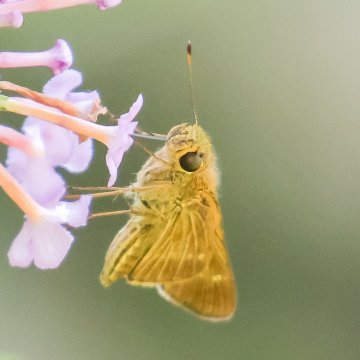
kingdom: Animalia
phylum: Arthropoda
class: Insecta
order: Lepidoptera
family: Hesperiidae
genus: Panoquina
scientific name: Panoquina ocola
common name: Ocola Skipper
